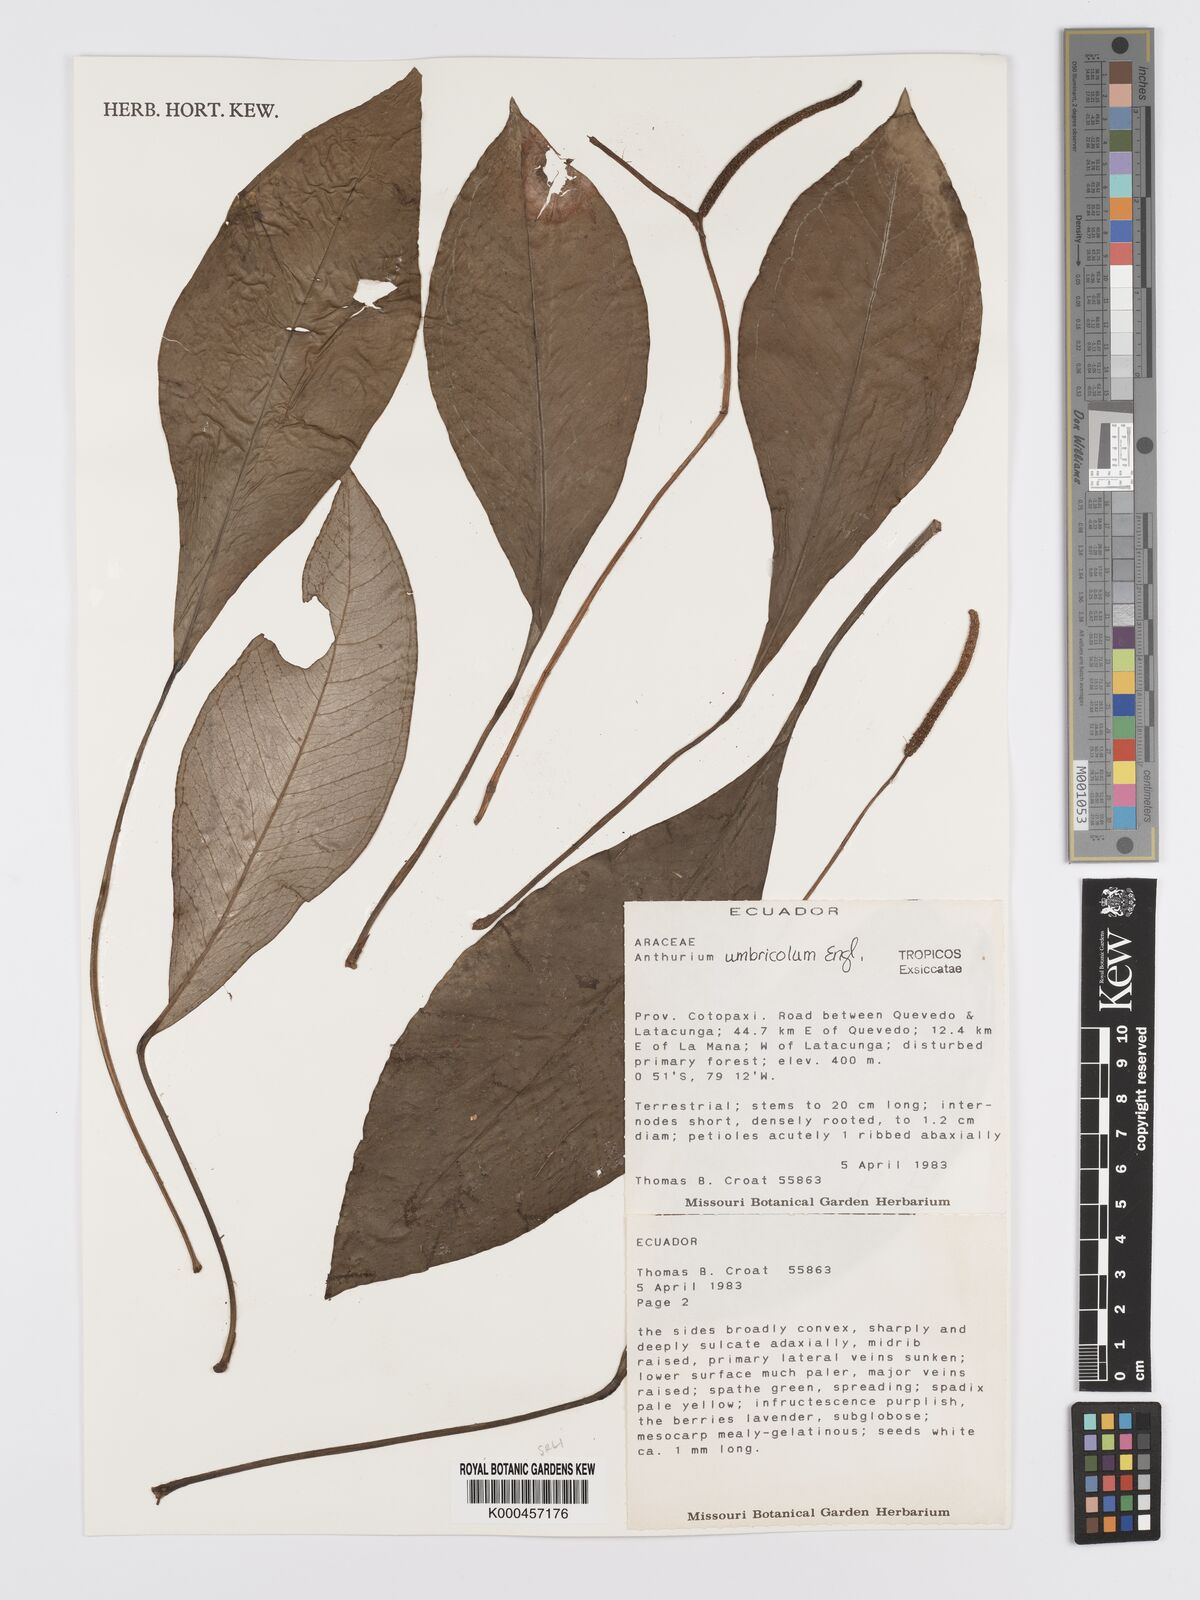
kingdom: Plantae
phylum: Tracheophyta
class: Liliopsida
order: Alismatales
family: Araceae
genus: Anthurium
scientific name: Anthurium umbricola
